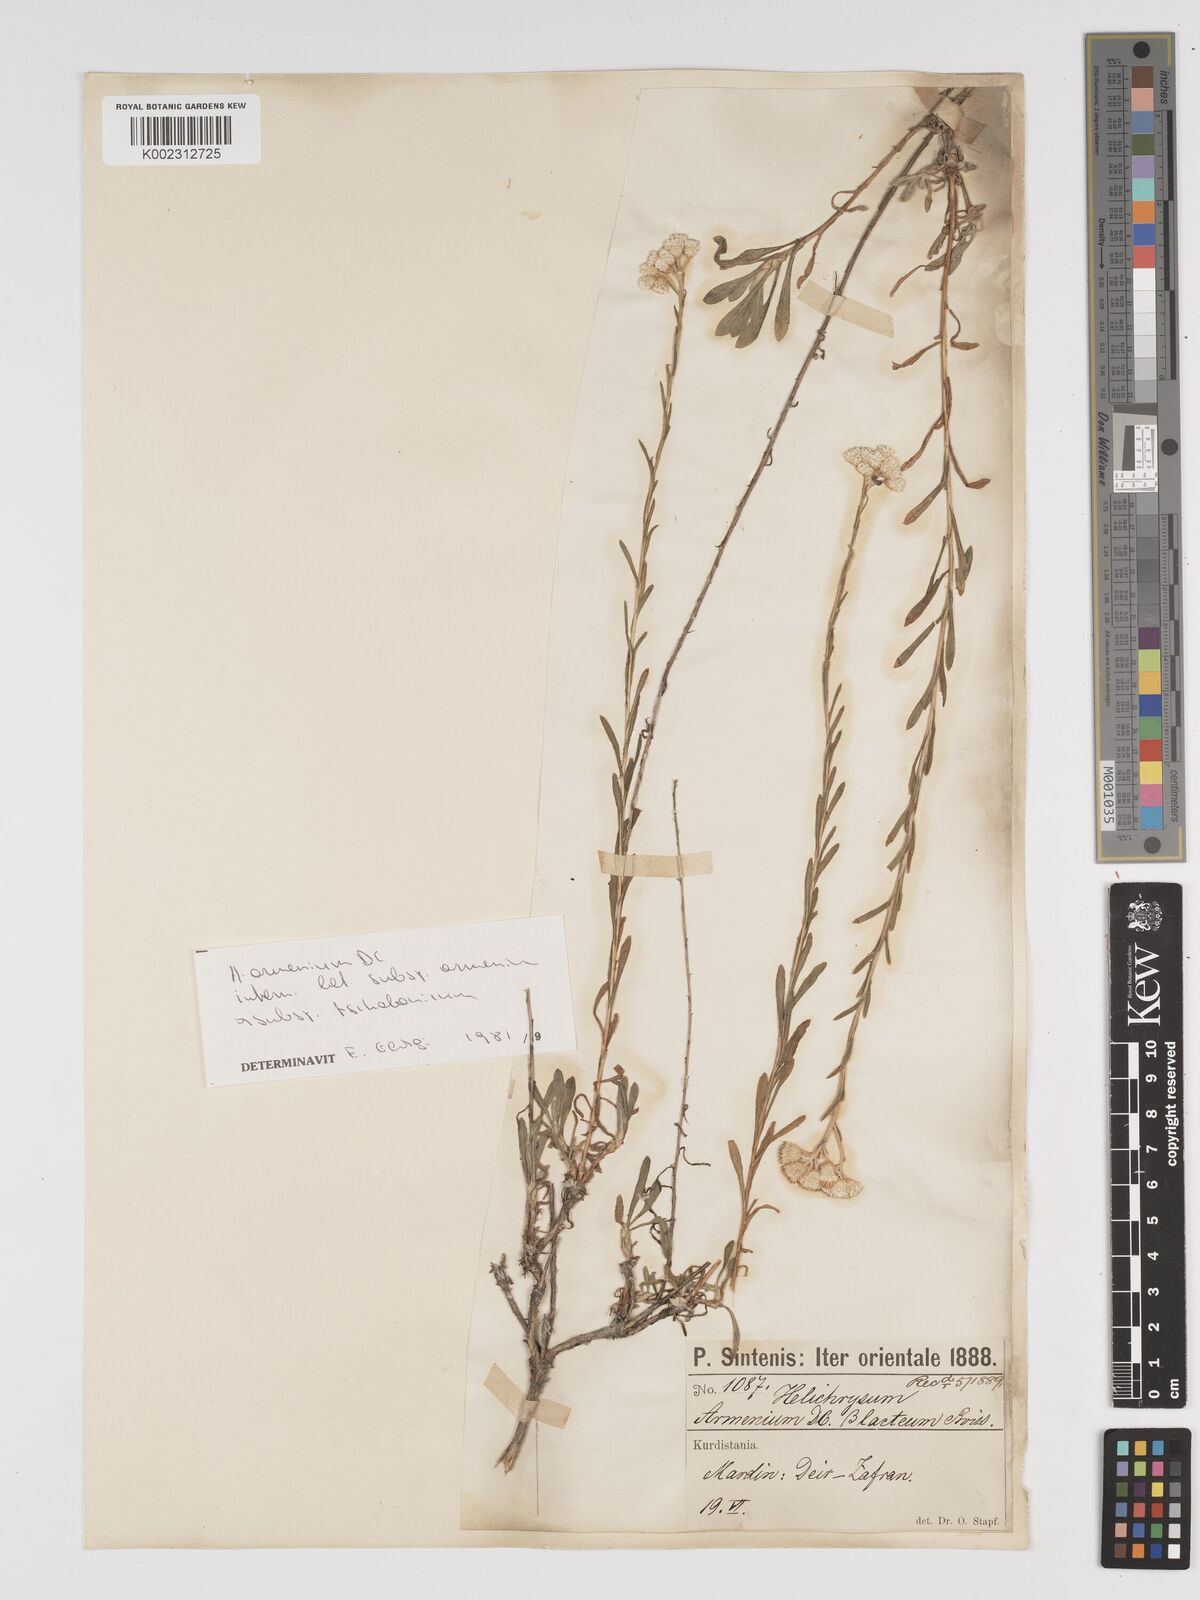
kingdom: Plantae
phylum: Tracheophyta
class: Magnoliopsida
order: Asterales
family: Asteraceae
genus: Helichrysum
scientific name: Helichrysum armenium
